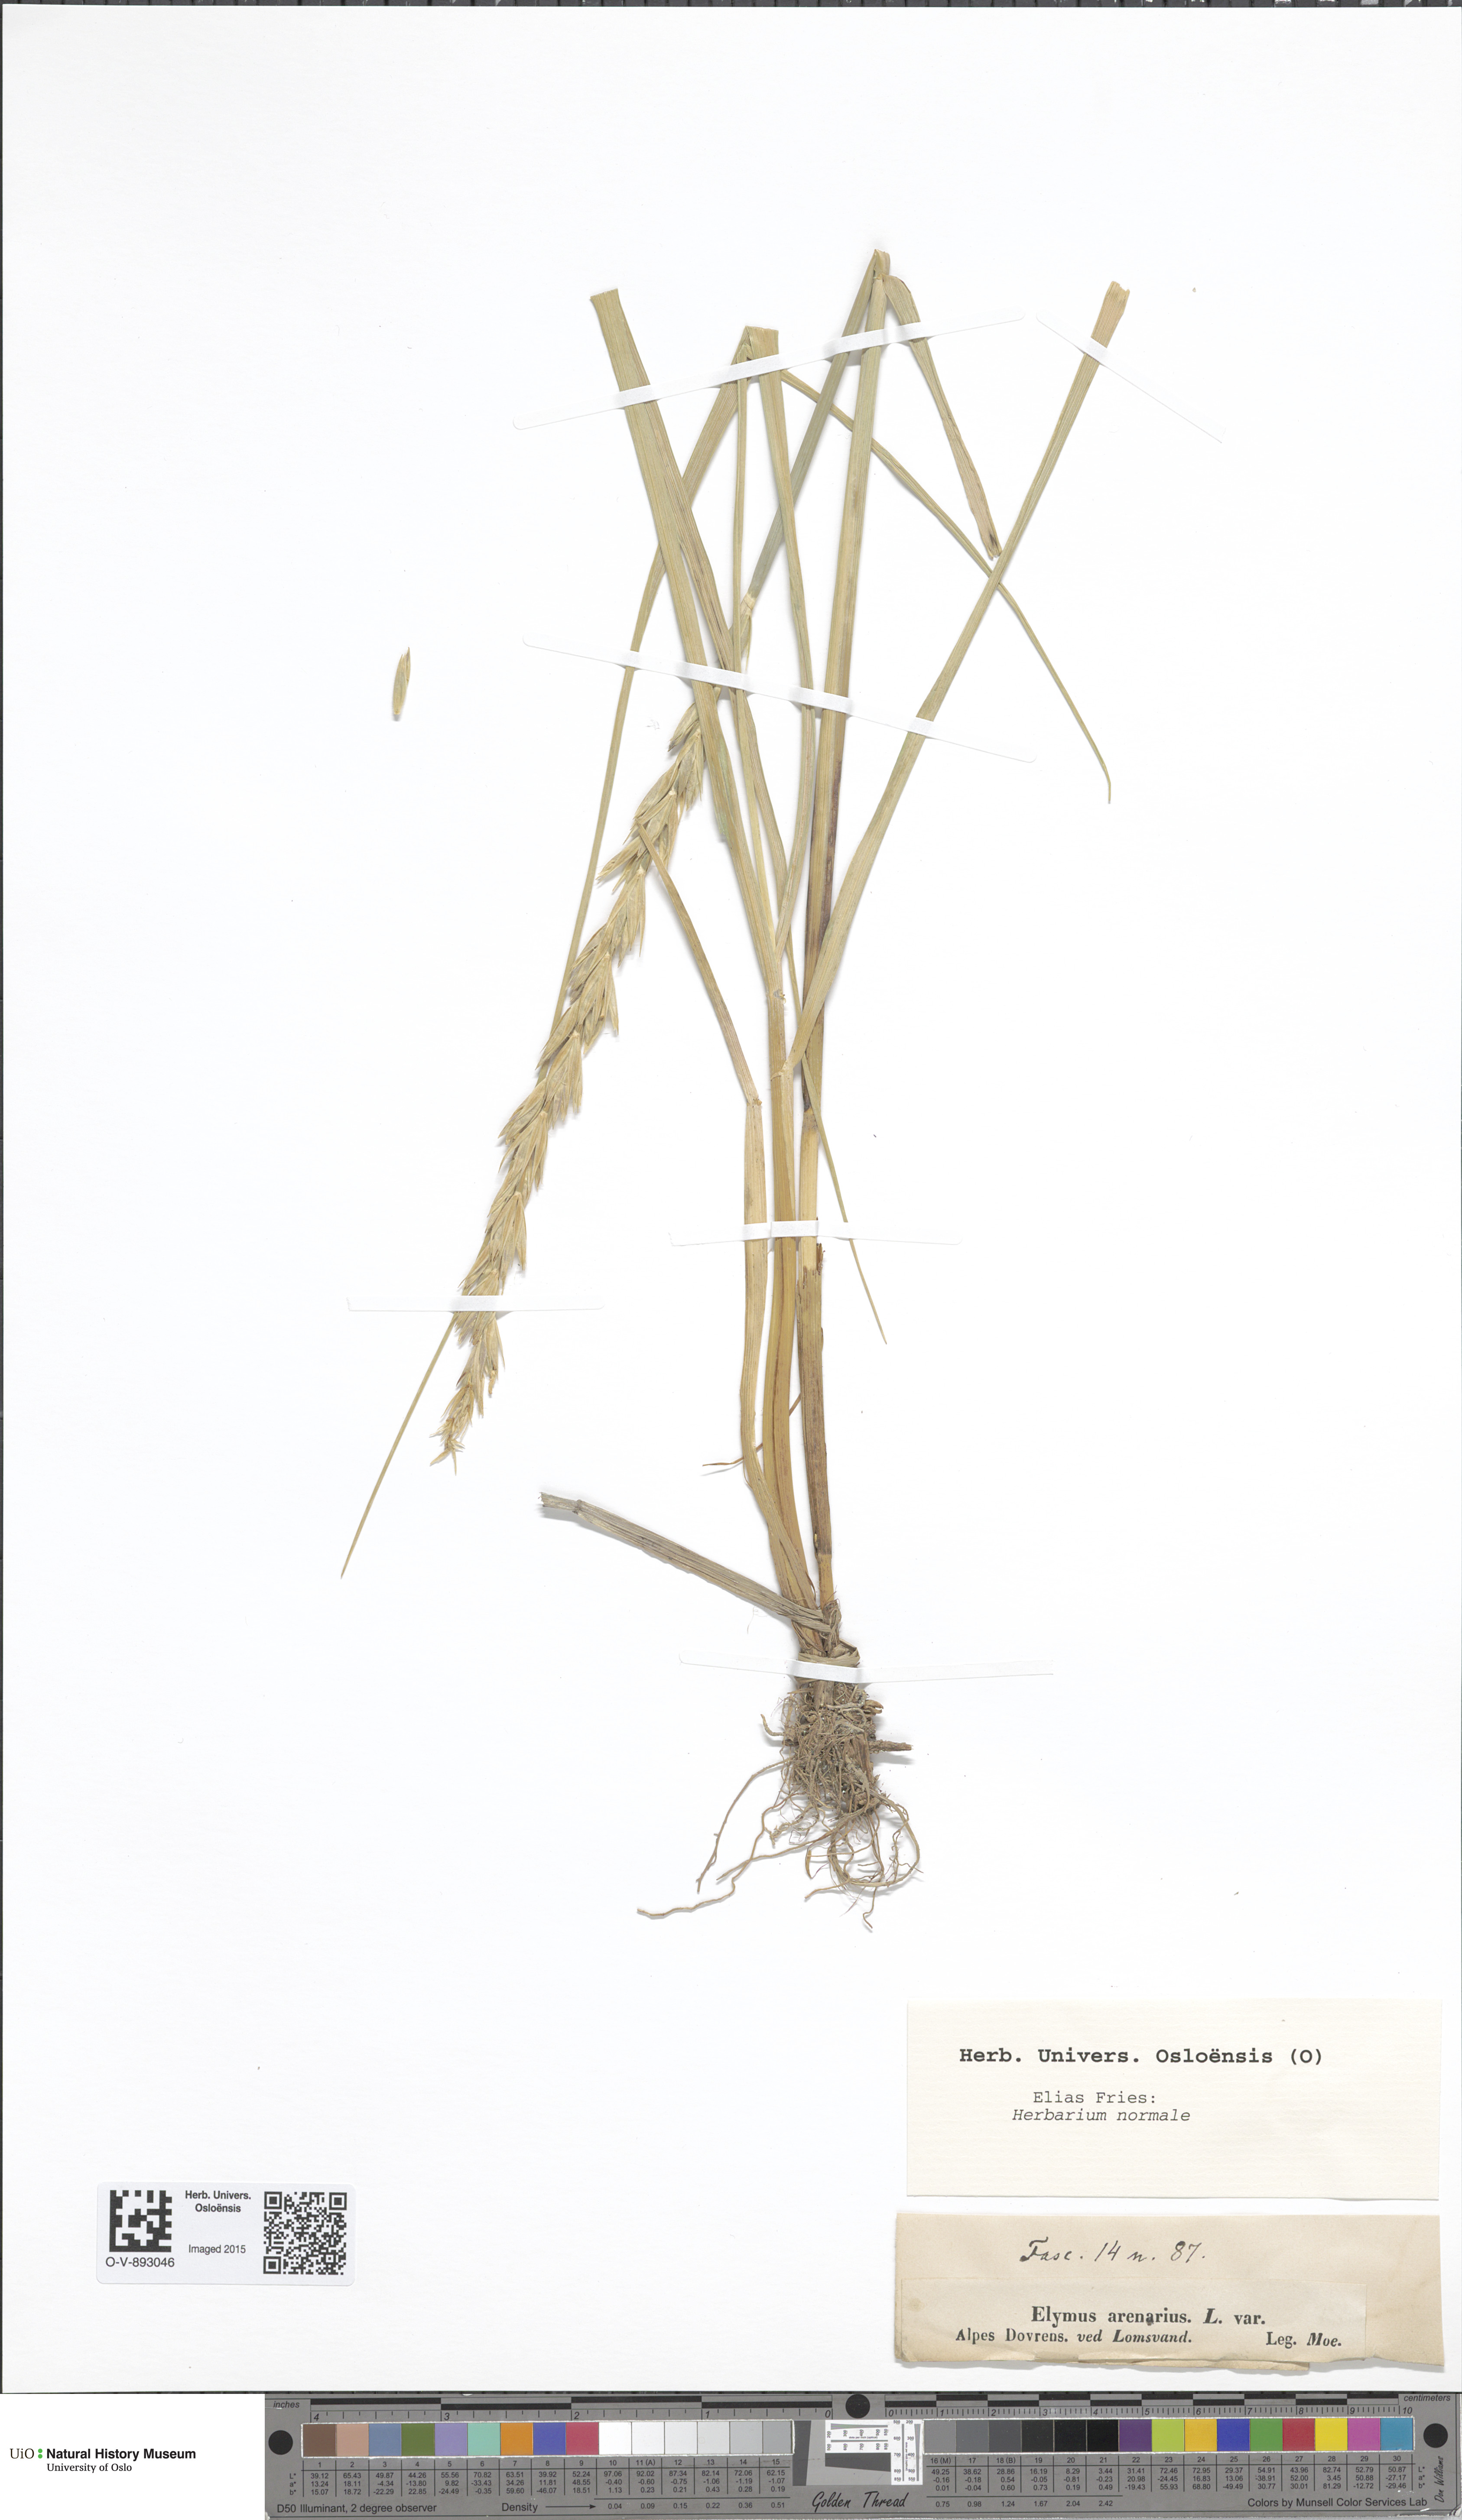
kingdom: Plantae
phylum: Tracheophyta
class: Liliopsida
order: Poales
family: Poaceae
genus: Leymus
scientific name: Leymus arenarius
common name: Lyme-grass
